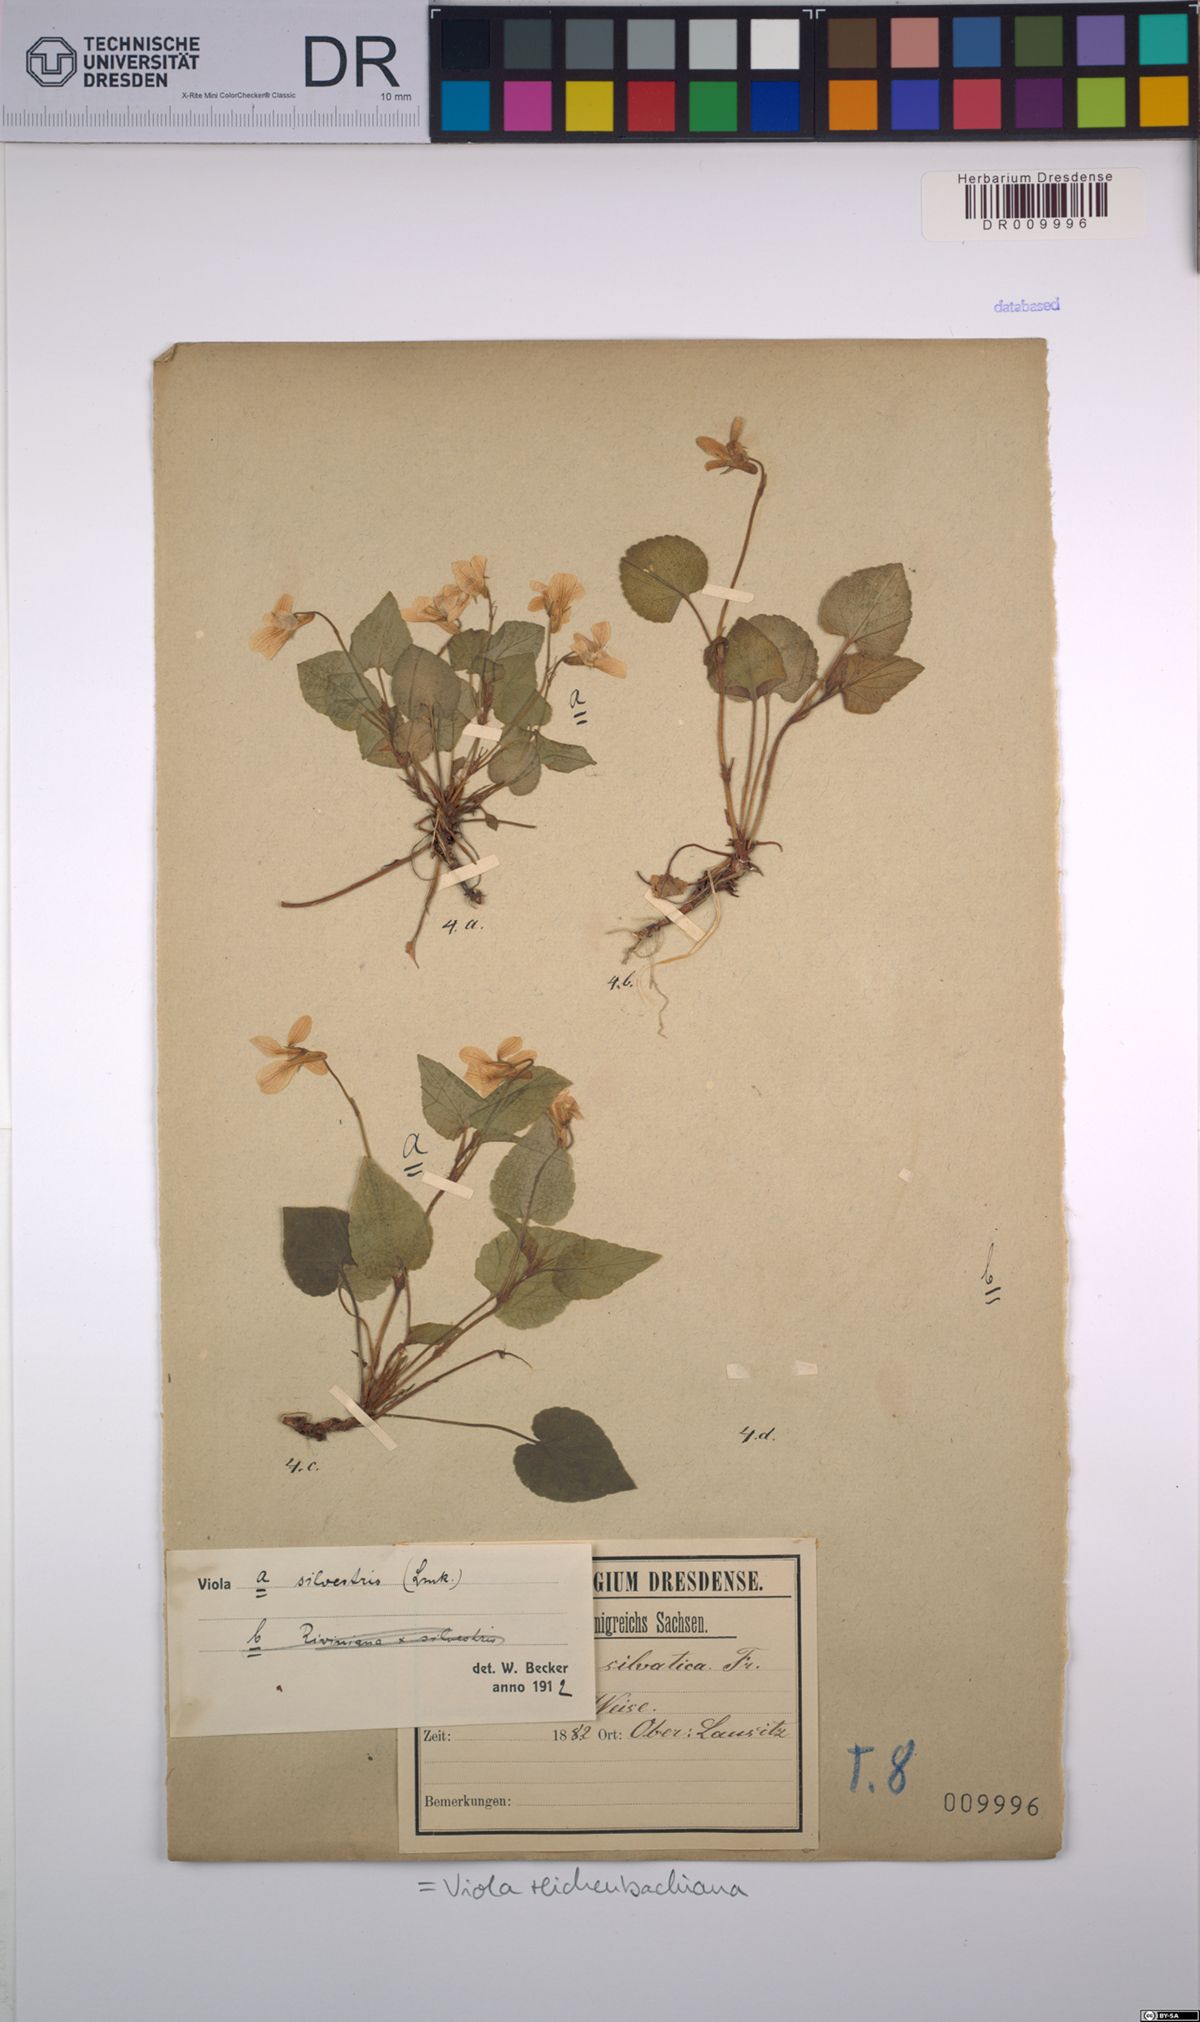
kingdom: Plantae
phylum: Tracheophyta
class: Magnoliopsida
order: Malpighiales
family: Violaceae
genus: Viola
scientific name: Viola reichenbachiana
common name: Early dog-violet
